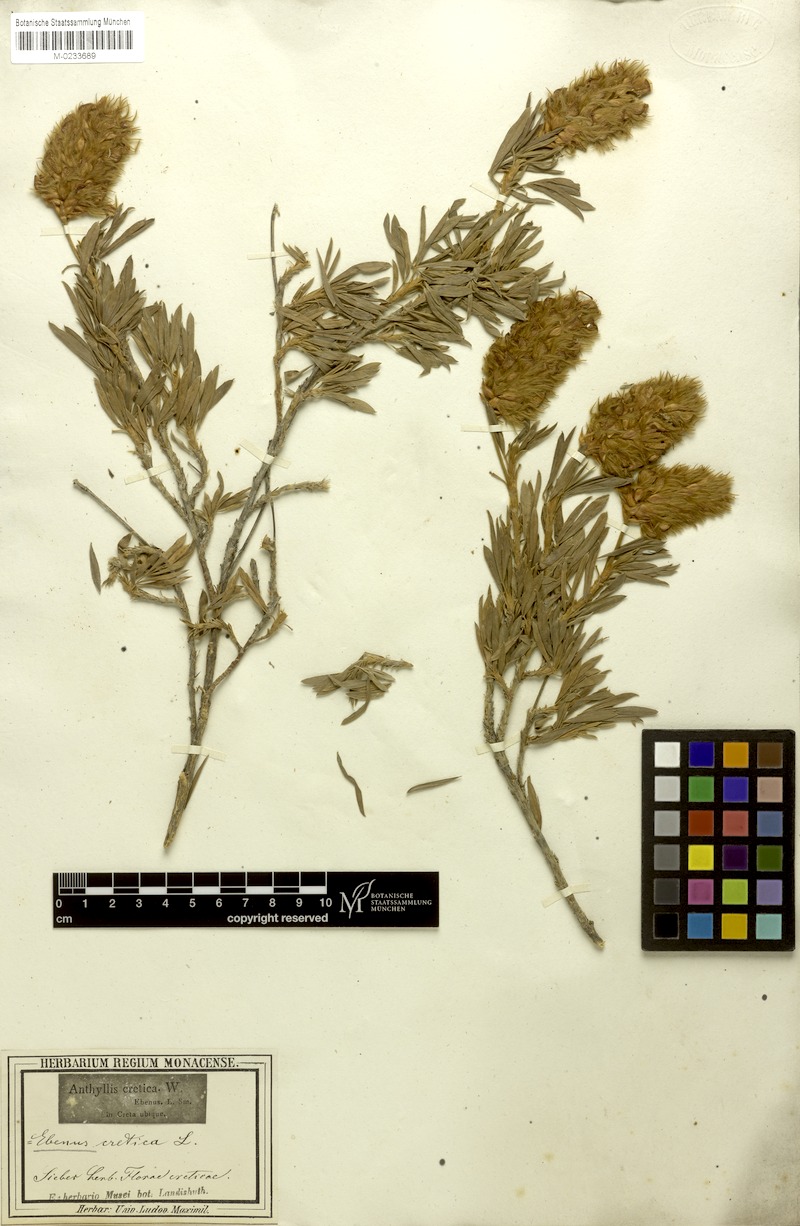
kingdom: Plantae
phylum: Tracheophyta
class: Magnoliopsida
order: Fabales
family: Fabaceae
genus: Ebenus
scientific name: Ebenus cretica
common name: Cretan silver bush
